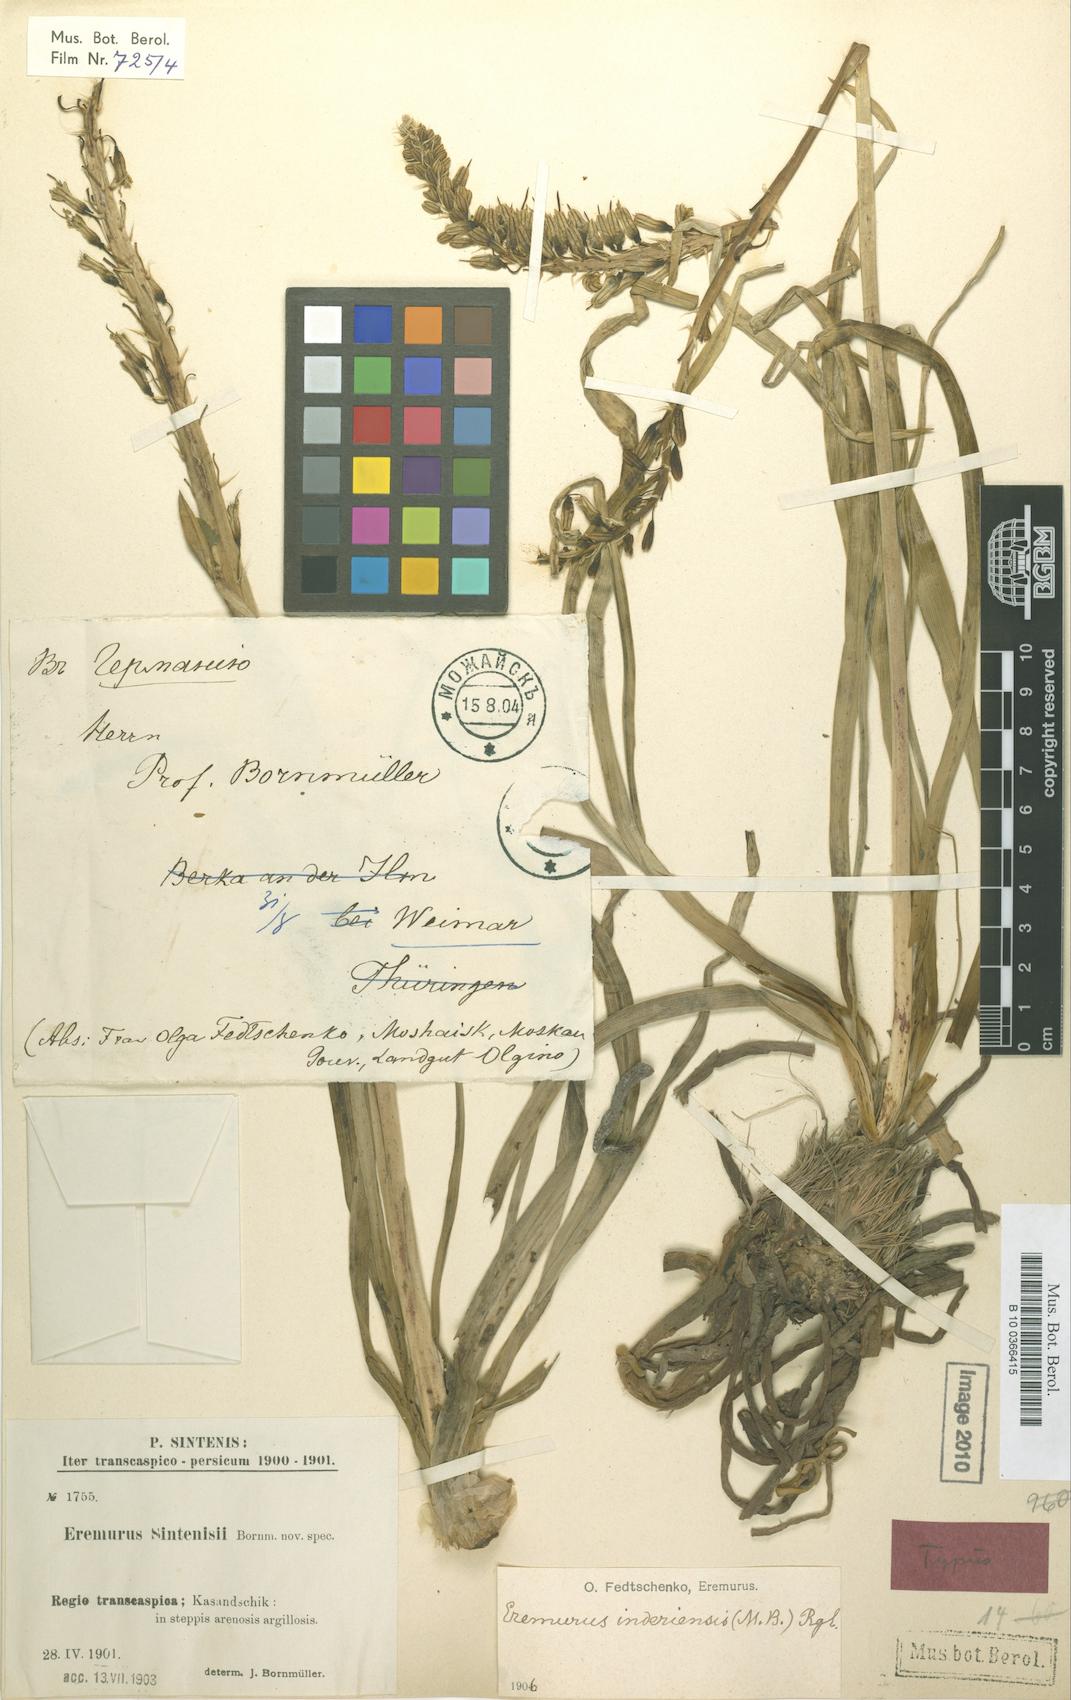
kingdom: Plantae
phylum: Tracheophyta
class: Liliopsida
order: Asparagales
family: Asphodelaceae
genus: Eremurus
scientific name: Eremurus inderiensis
